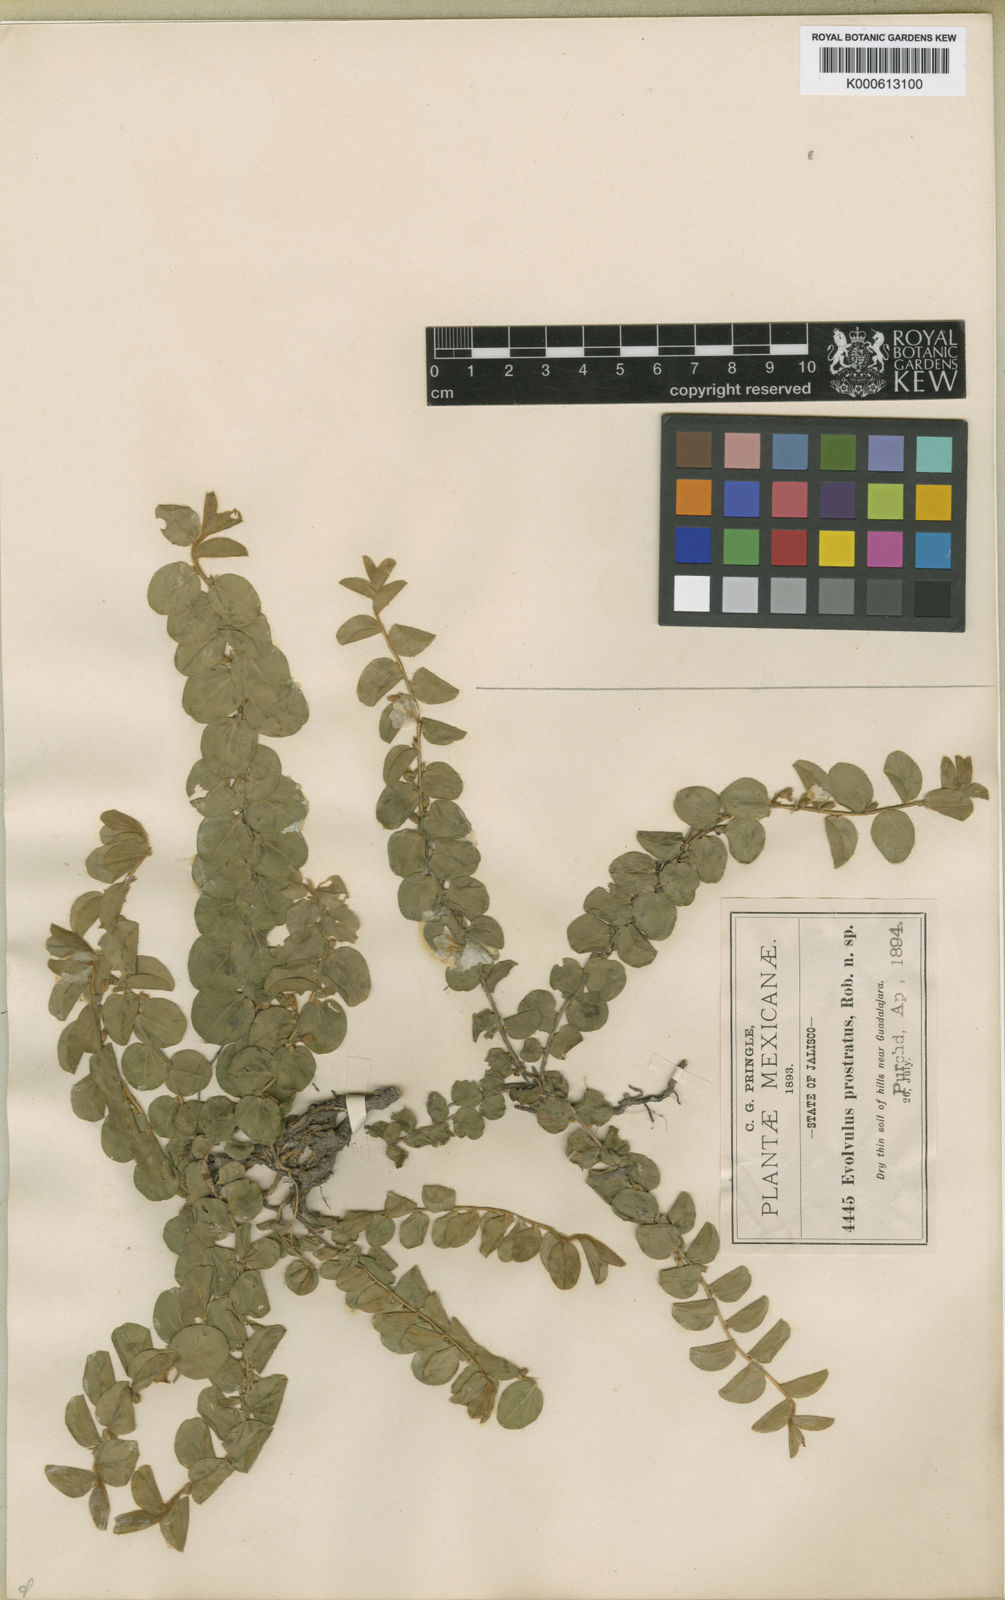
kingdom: Plantae
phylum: Tracheophyta
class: Magnoliopsida
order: Solanales
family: Convolvulaceae
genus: Evolvulus
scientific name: Evolvulus prostratus
